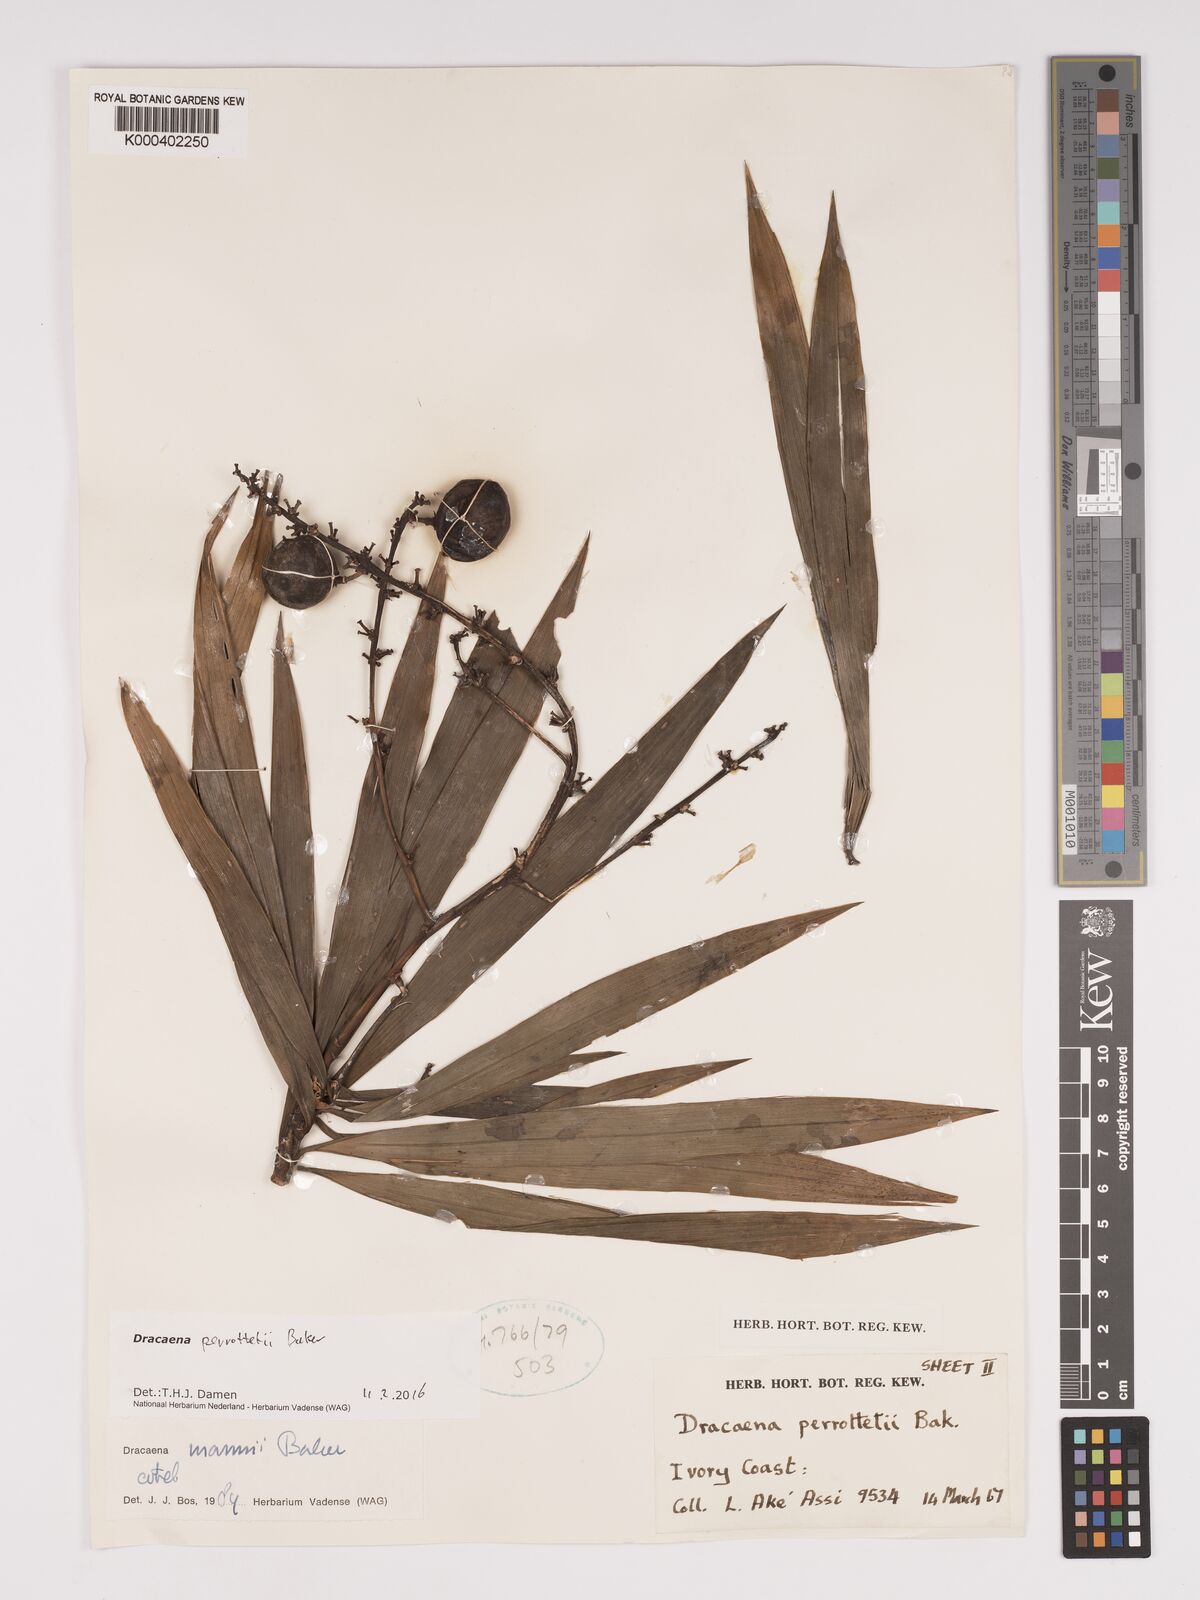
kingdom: Plantae
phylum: Tracheophyta
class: Liliopsida
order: Asparagales
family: Asparagaceae
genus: Dracaena
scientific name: Dracaena perrottetii
